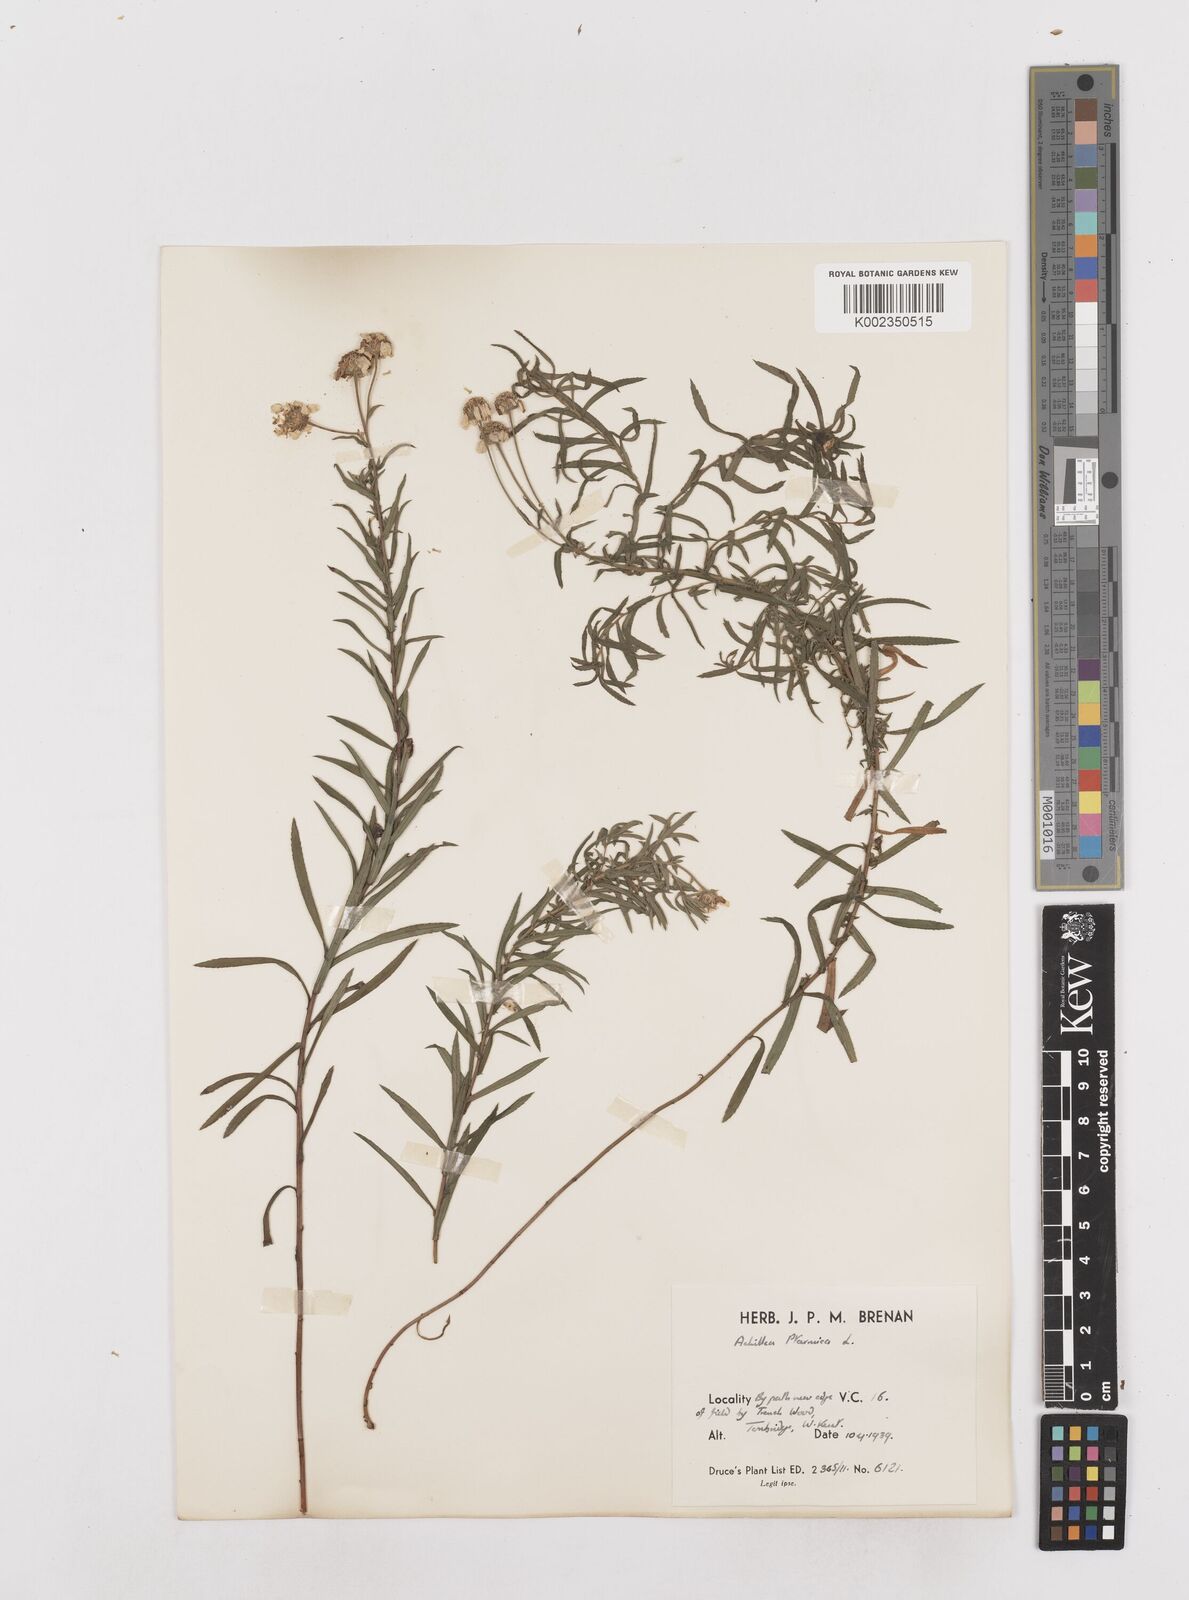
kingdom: Plantae
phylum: Tracheophyta
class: Magnoliopsida
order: Asterales
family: Asteraceae
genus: Achillea
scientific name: Achillea ptarmica
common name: Sneezeweed
